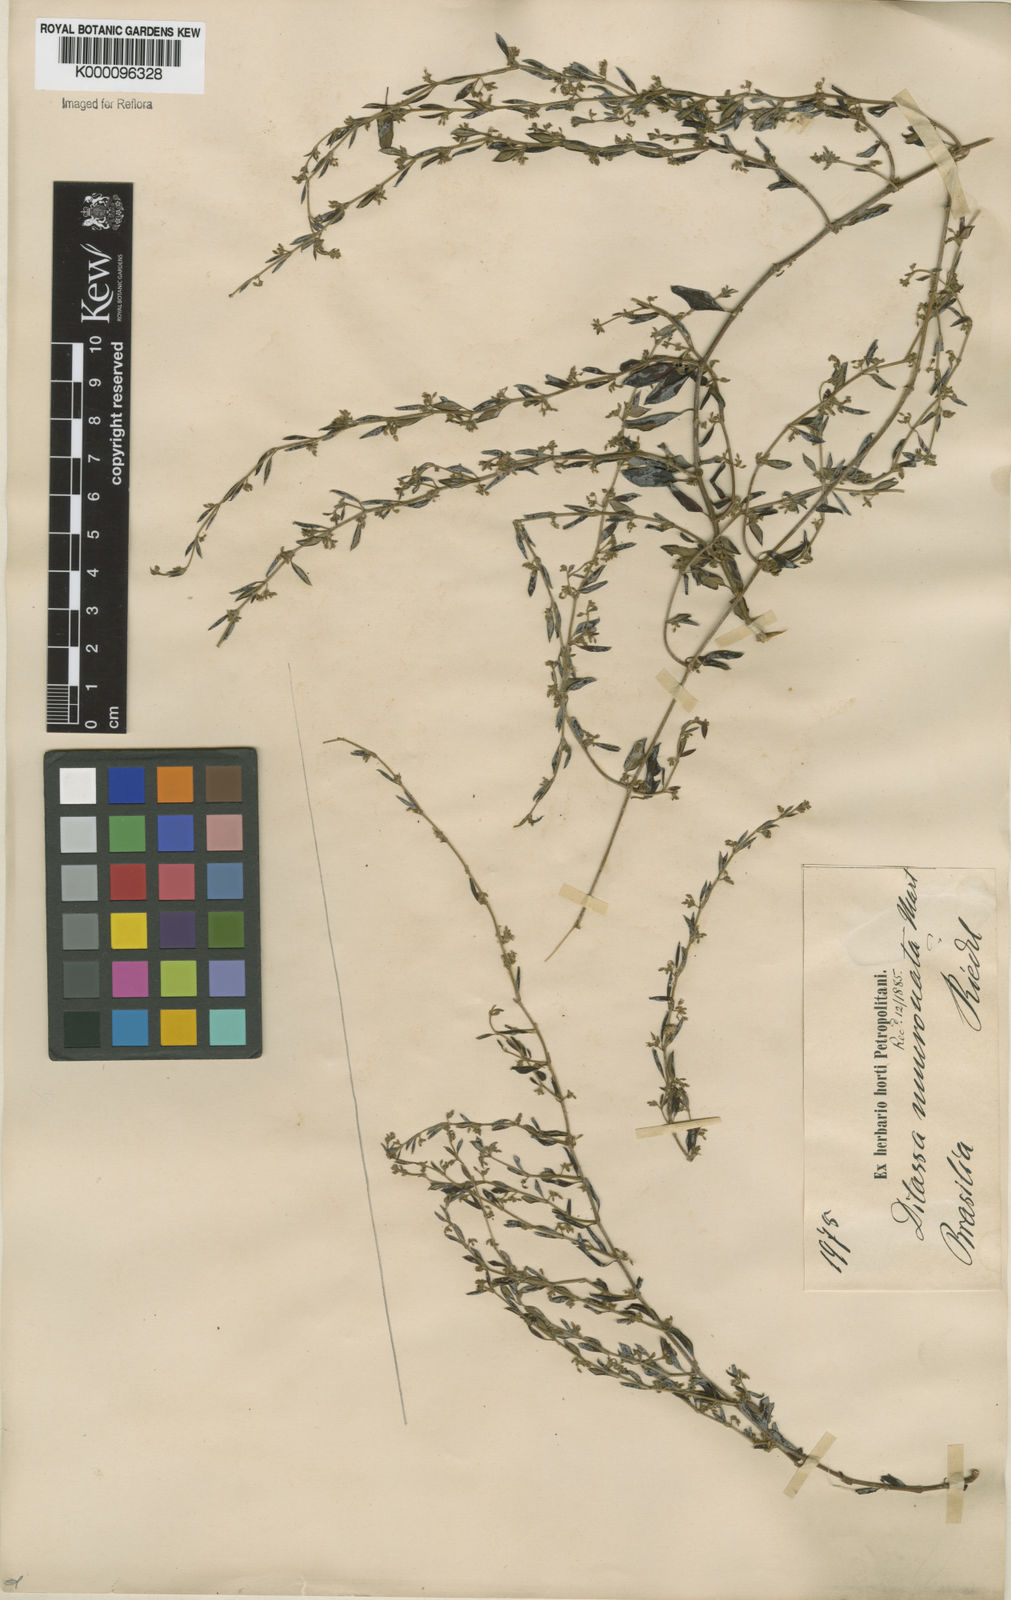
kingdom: Plantae
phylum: Tracheophyta
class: Magnoliopsida
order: Gentianales
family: Apocynaceae
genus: Metastelma
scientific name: Metastelma burchellii
